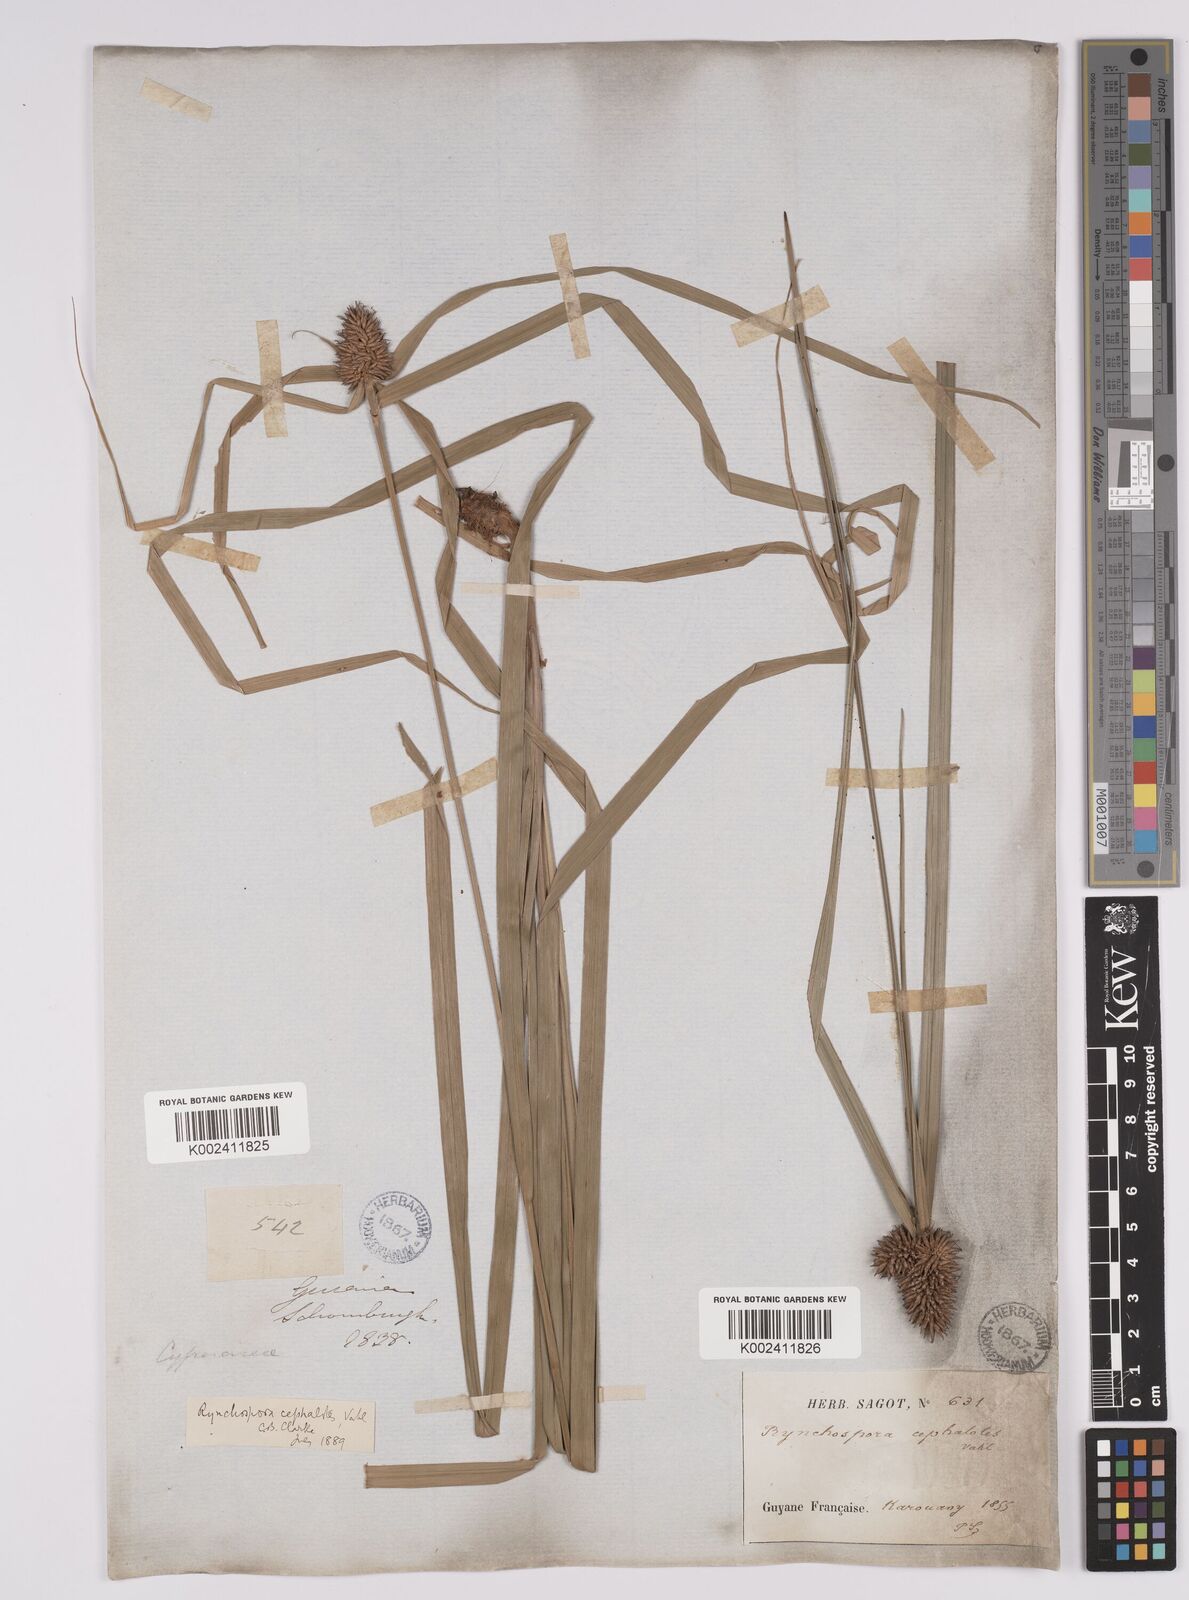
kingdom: Plantae
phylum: Tracheophyta
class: Liliopsida
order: Poales
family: Cyperaceae
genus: Rhynchospora
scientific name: Rhynchospora cephalotes
